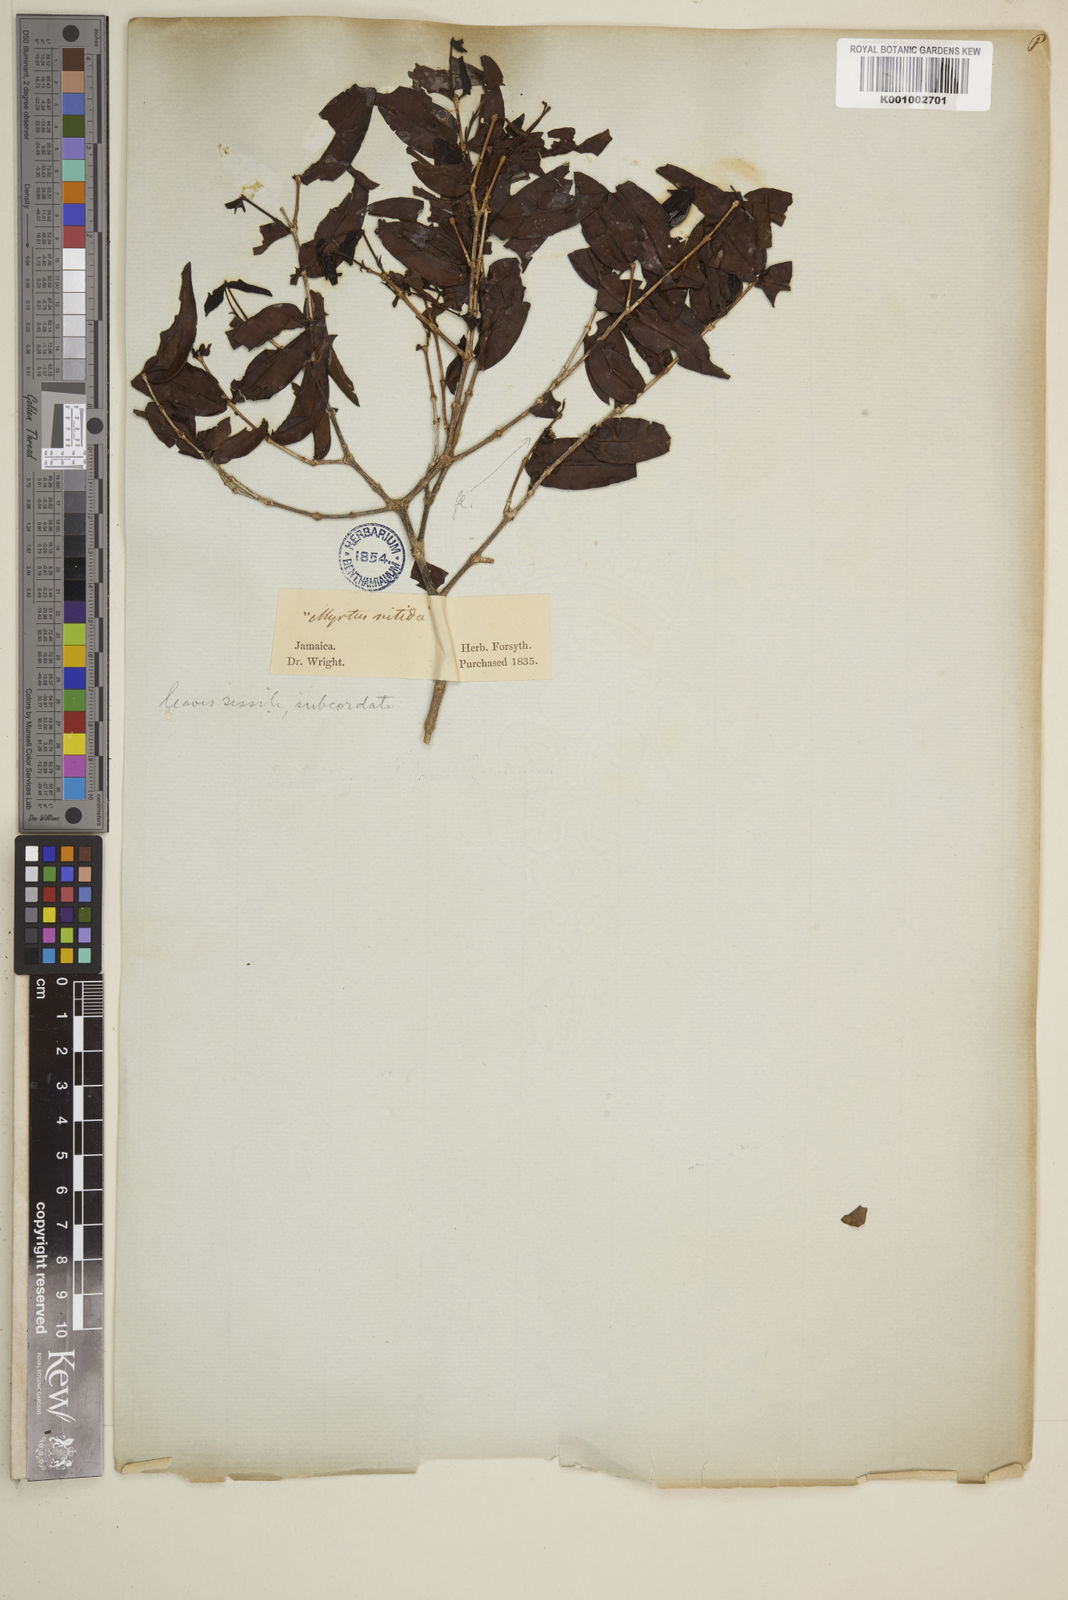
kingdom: Plantae
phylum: Tracheophyta
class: Magnoliopsida
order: Myrtales
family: Myrtaceae
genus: Eugenia
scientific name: Eugenia
